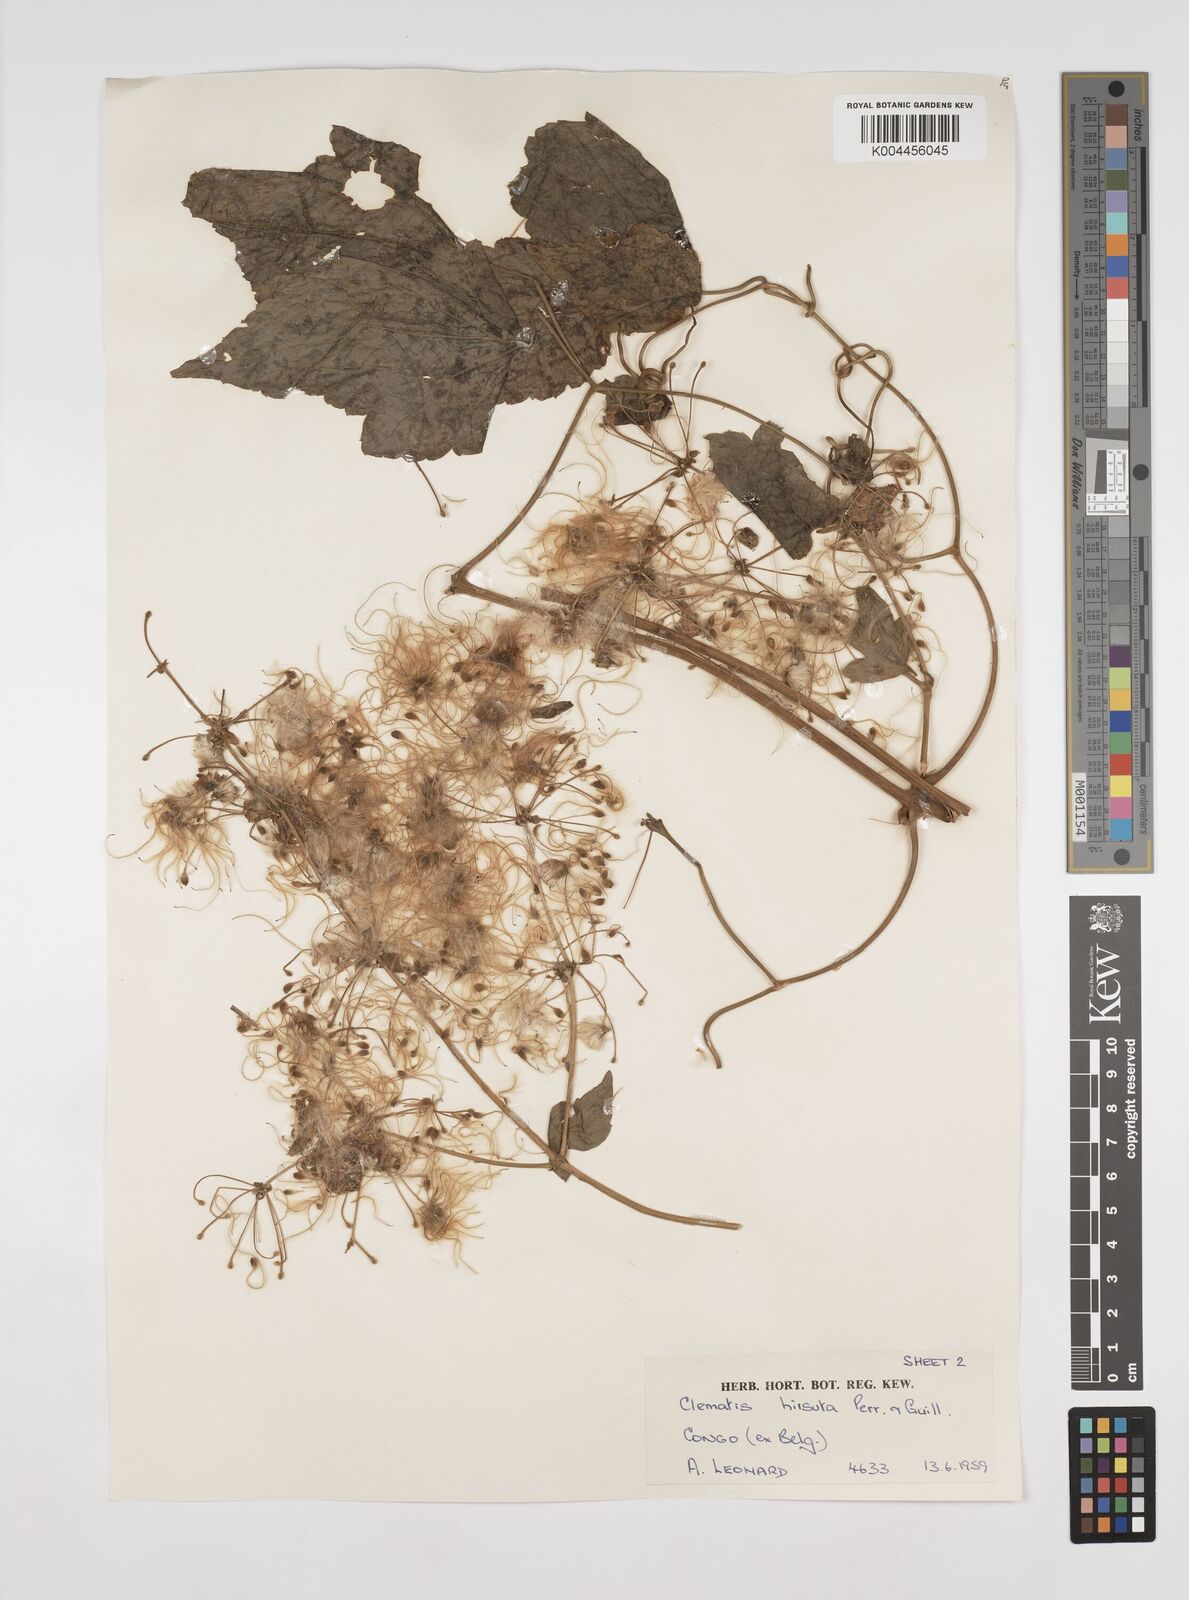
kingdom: Plantae
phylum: Tracheophyta
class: Magnoliopsida
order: Ranunculales
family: Ranunculaceae
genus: Clematis
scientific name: Clematis hirsuta
